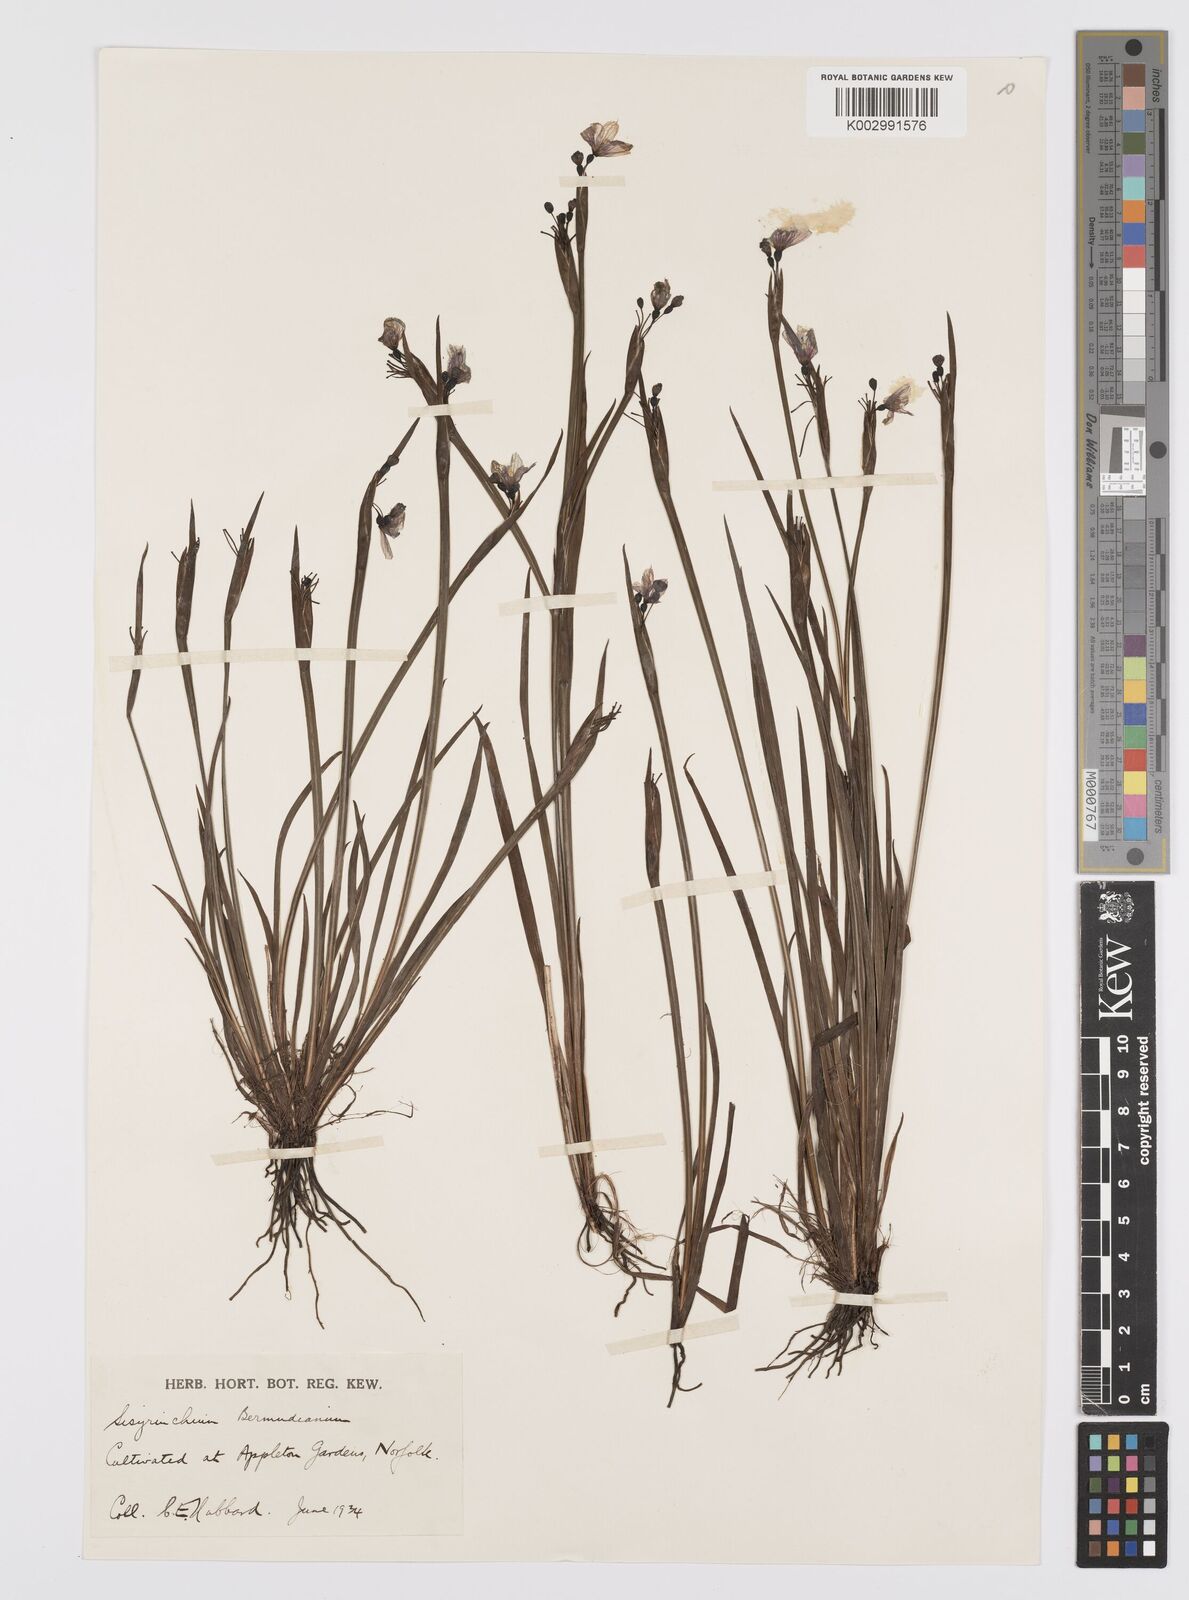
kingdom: Plantae
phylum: Tracheophyta
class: Liliopsida
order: Asparagales
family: Iridaceae
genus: Sisyrinchium
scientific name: Sisyrinchium angustifolium
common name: Narrow-leaf blue-eyed-grass
